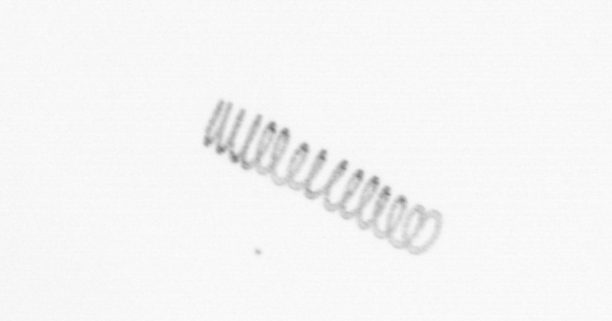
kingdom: Chromista
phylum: Ochrophyta
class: Bacillariophyceae
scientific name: Bacillariophyceae
